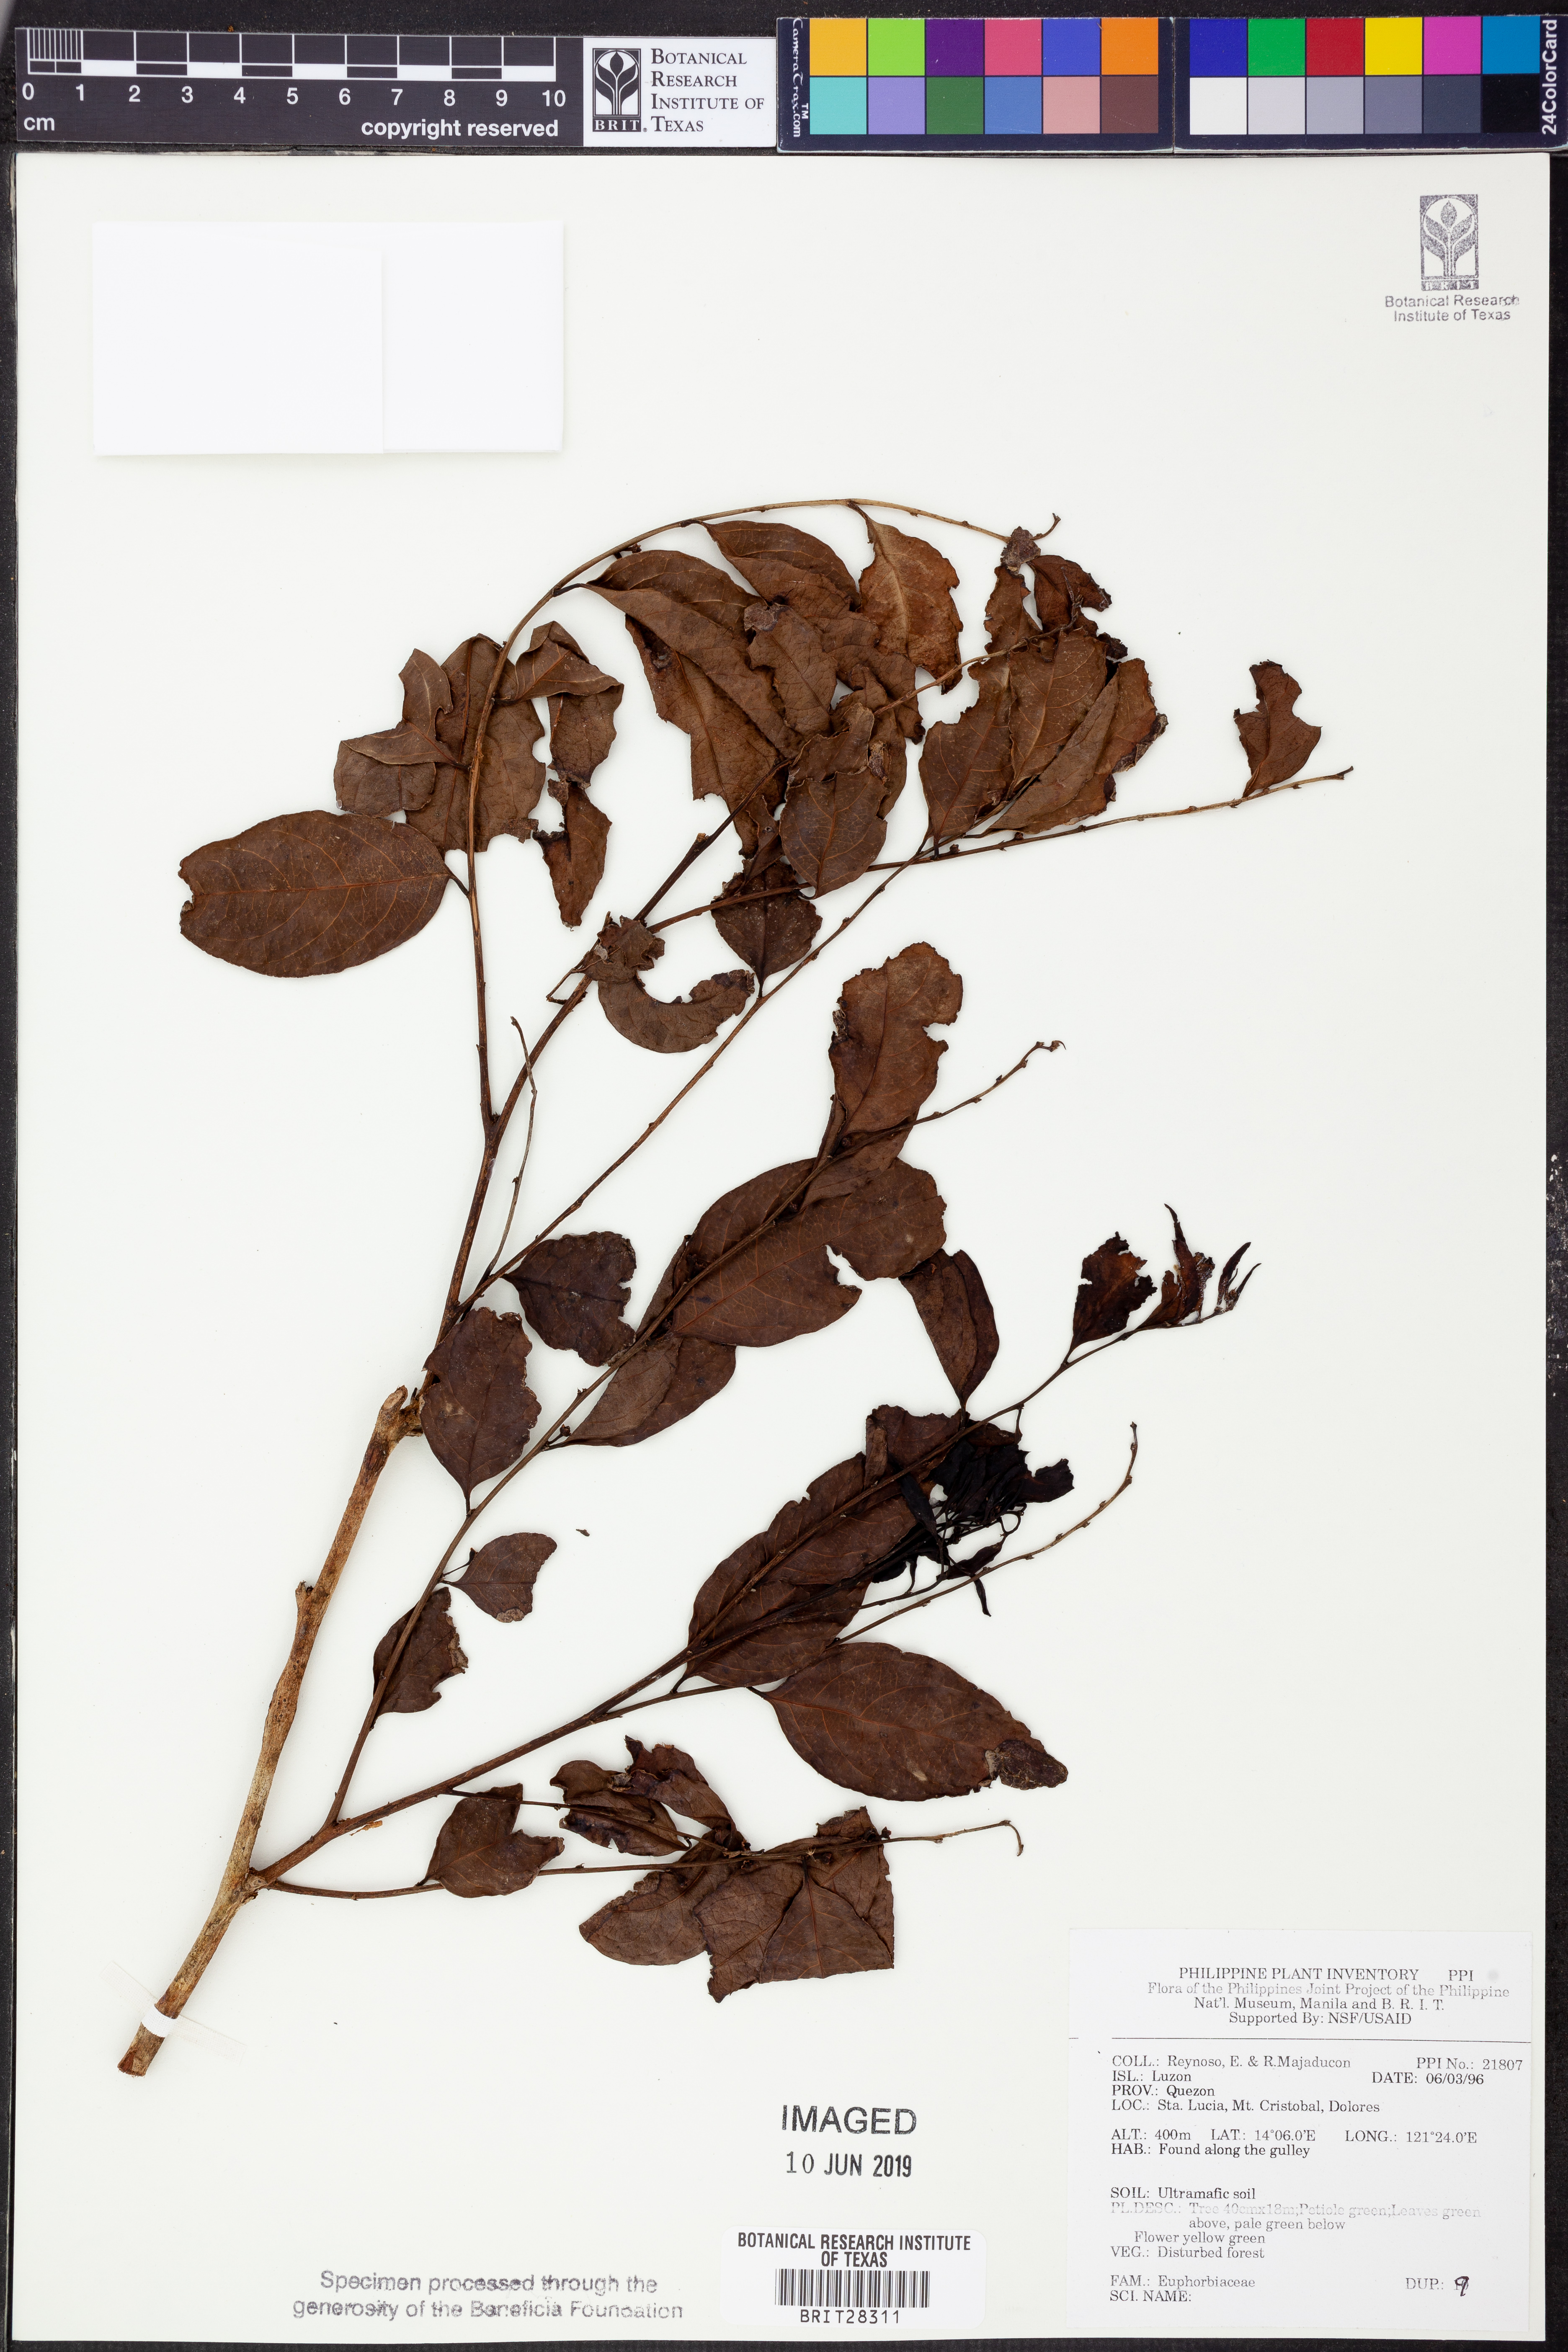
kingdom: Plantae
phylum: Tracheophyta
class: Magnoliopsida
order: Malpighiales
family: Euphorbiaceae
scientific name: Euphorbiaceae
